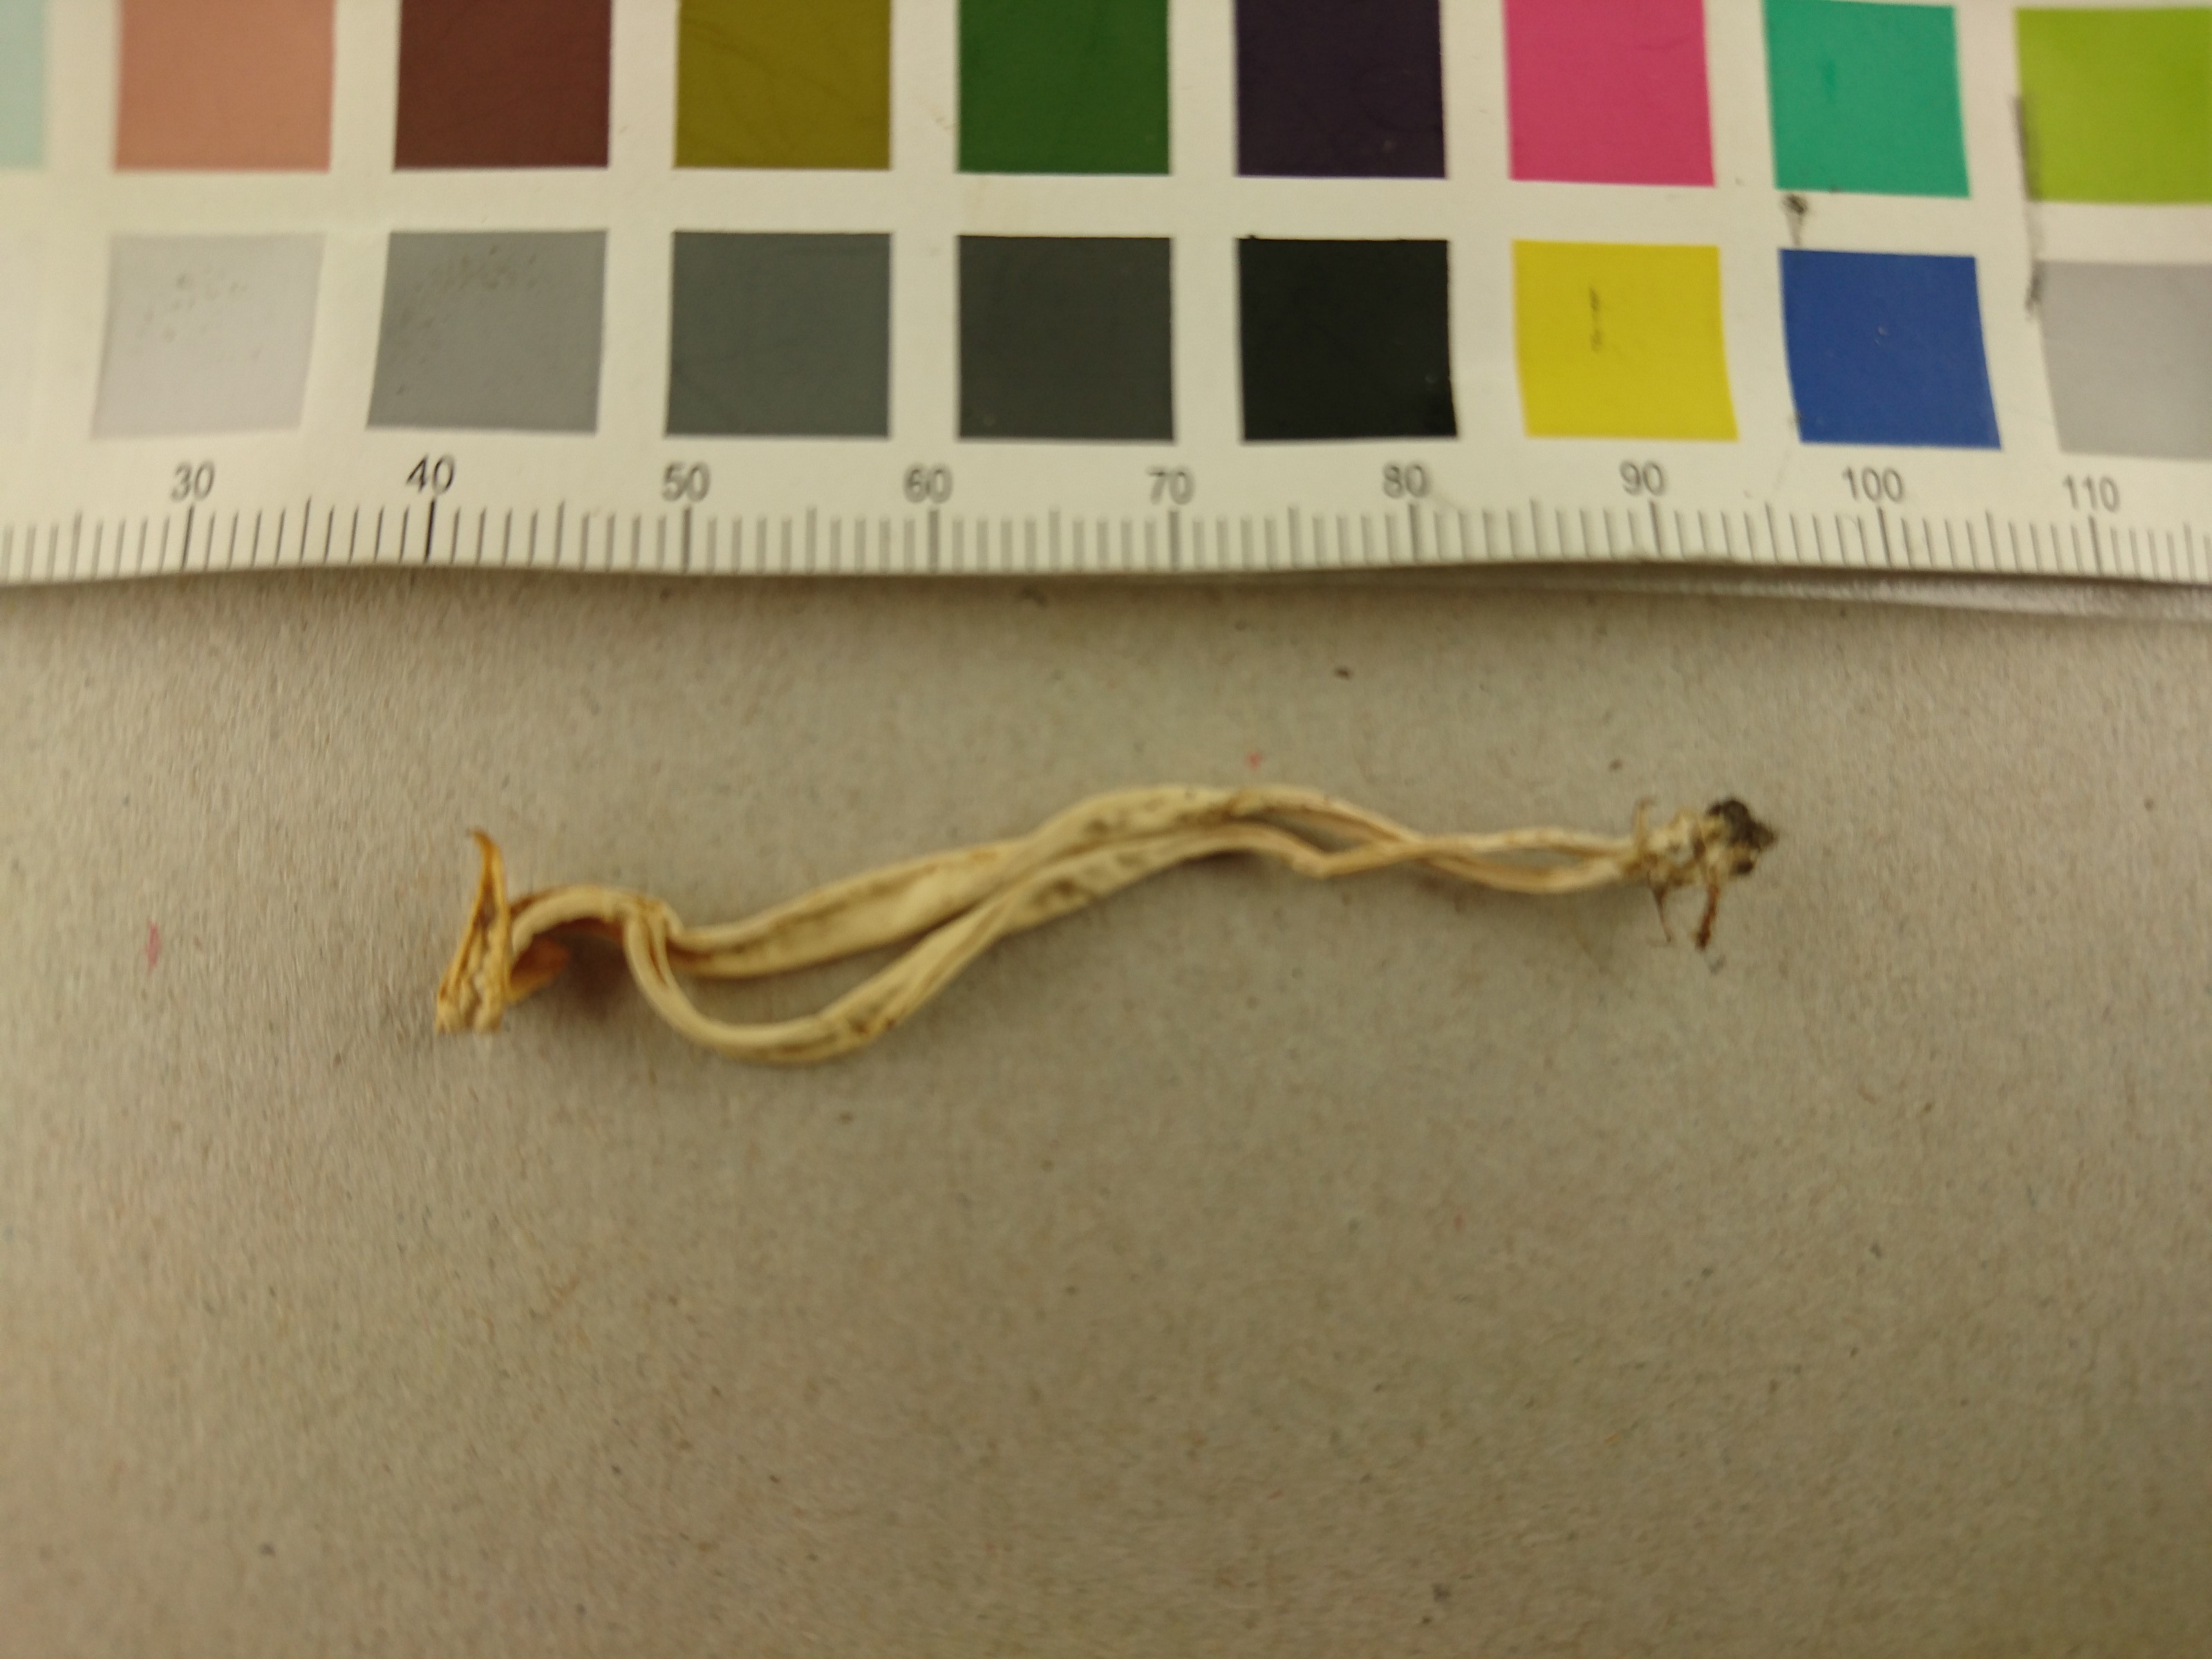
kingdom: Fungi
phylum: Basidiomycota
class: Agaricomycetes
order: Agaricales
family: Clavariaceae
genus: Clavulinopsis
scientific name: Clavulinopsis luteoalba
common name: Apricot club
